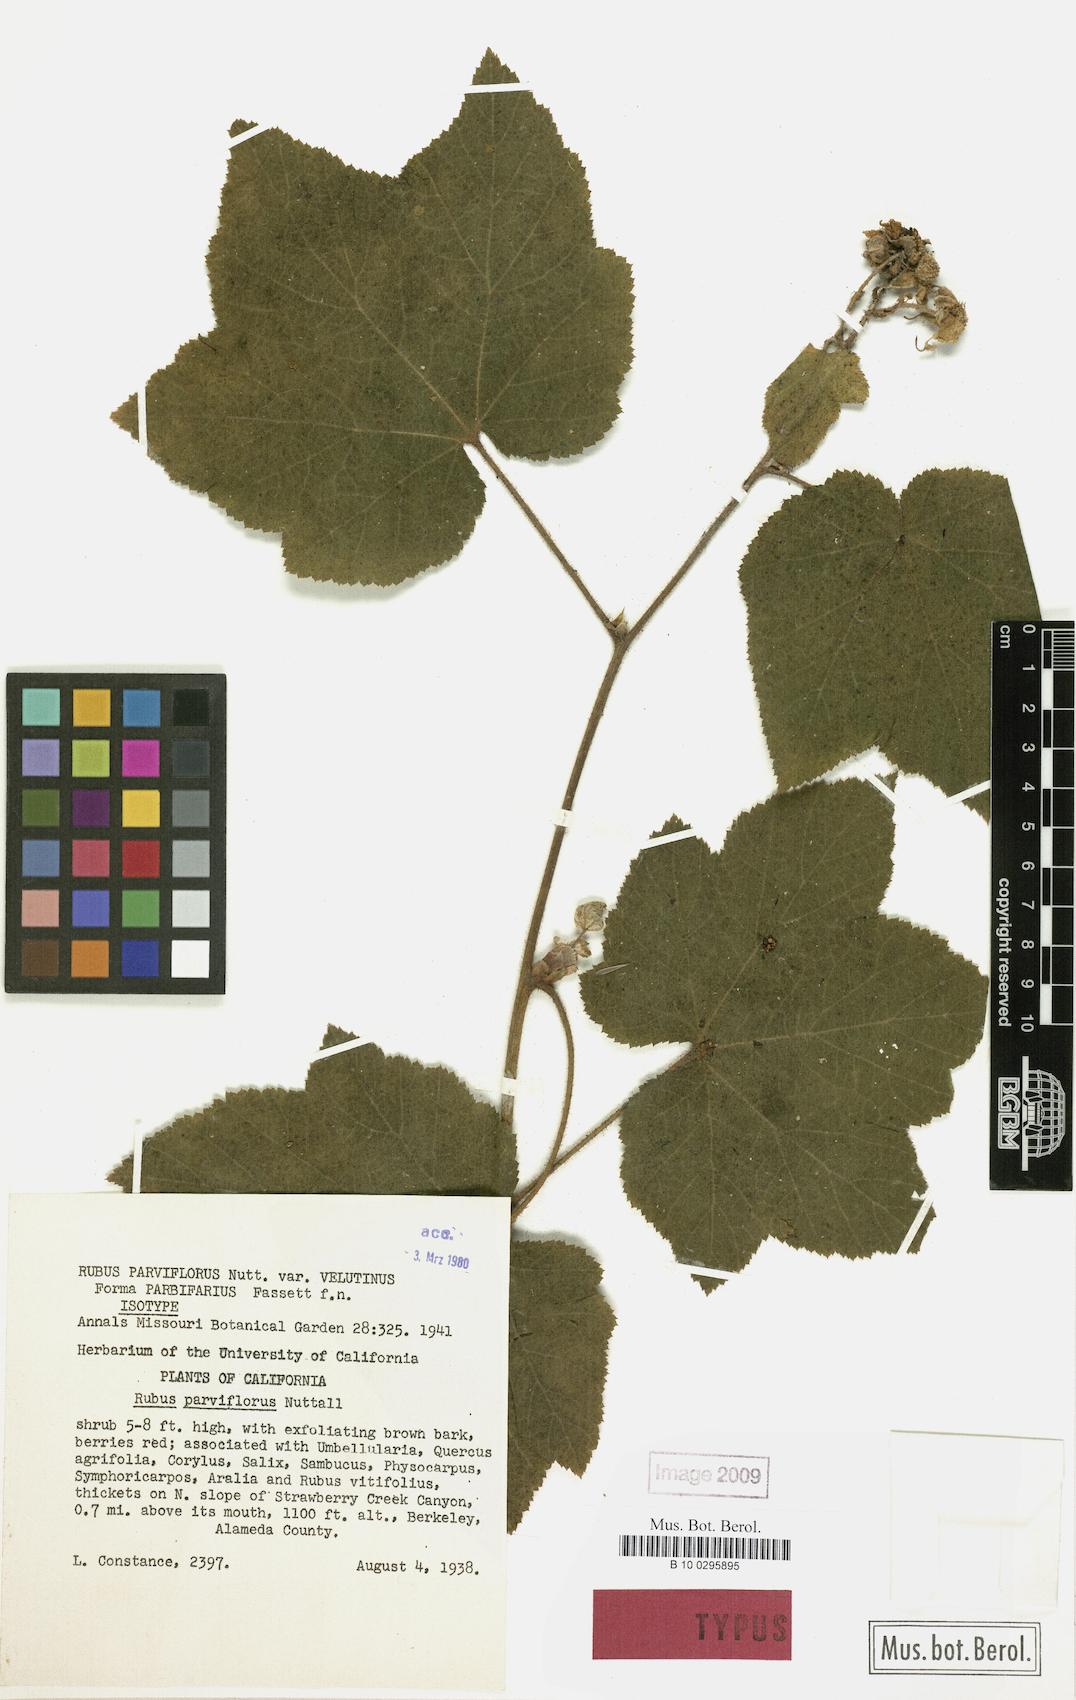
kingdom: Plantae
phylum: Tracheophyta
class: Magnoliopsida
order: Rosales
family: Rosaceae
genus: Rubus
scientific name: Rubus nutkanus
